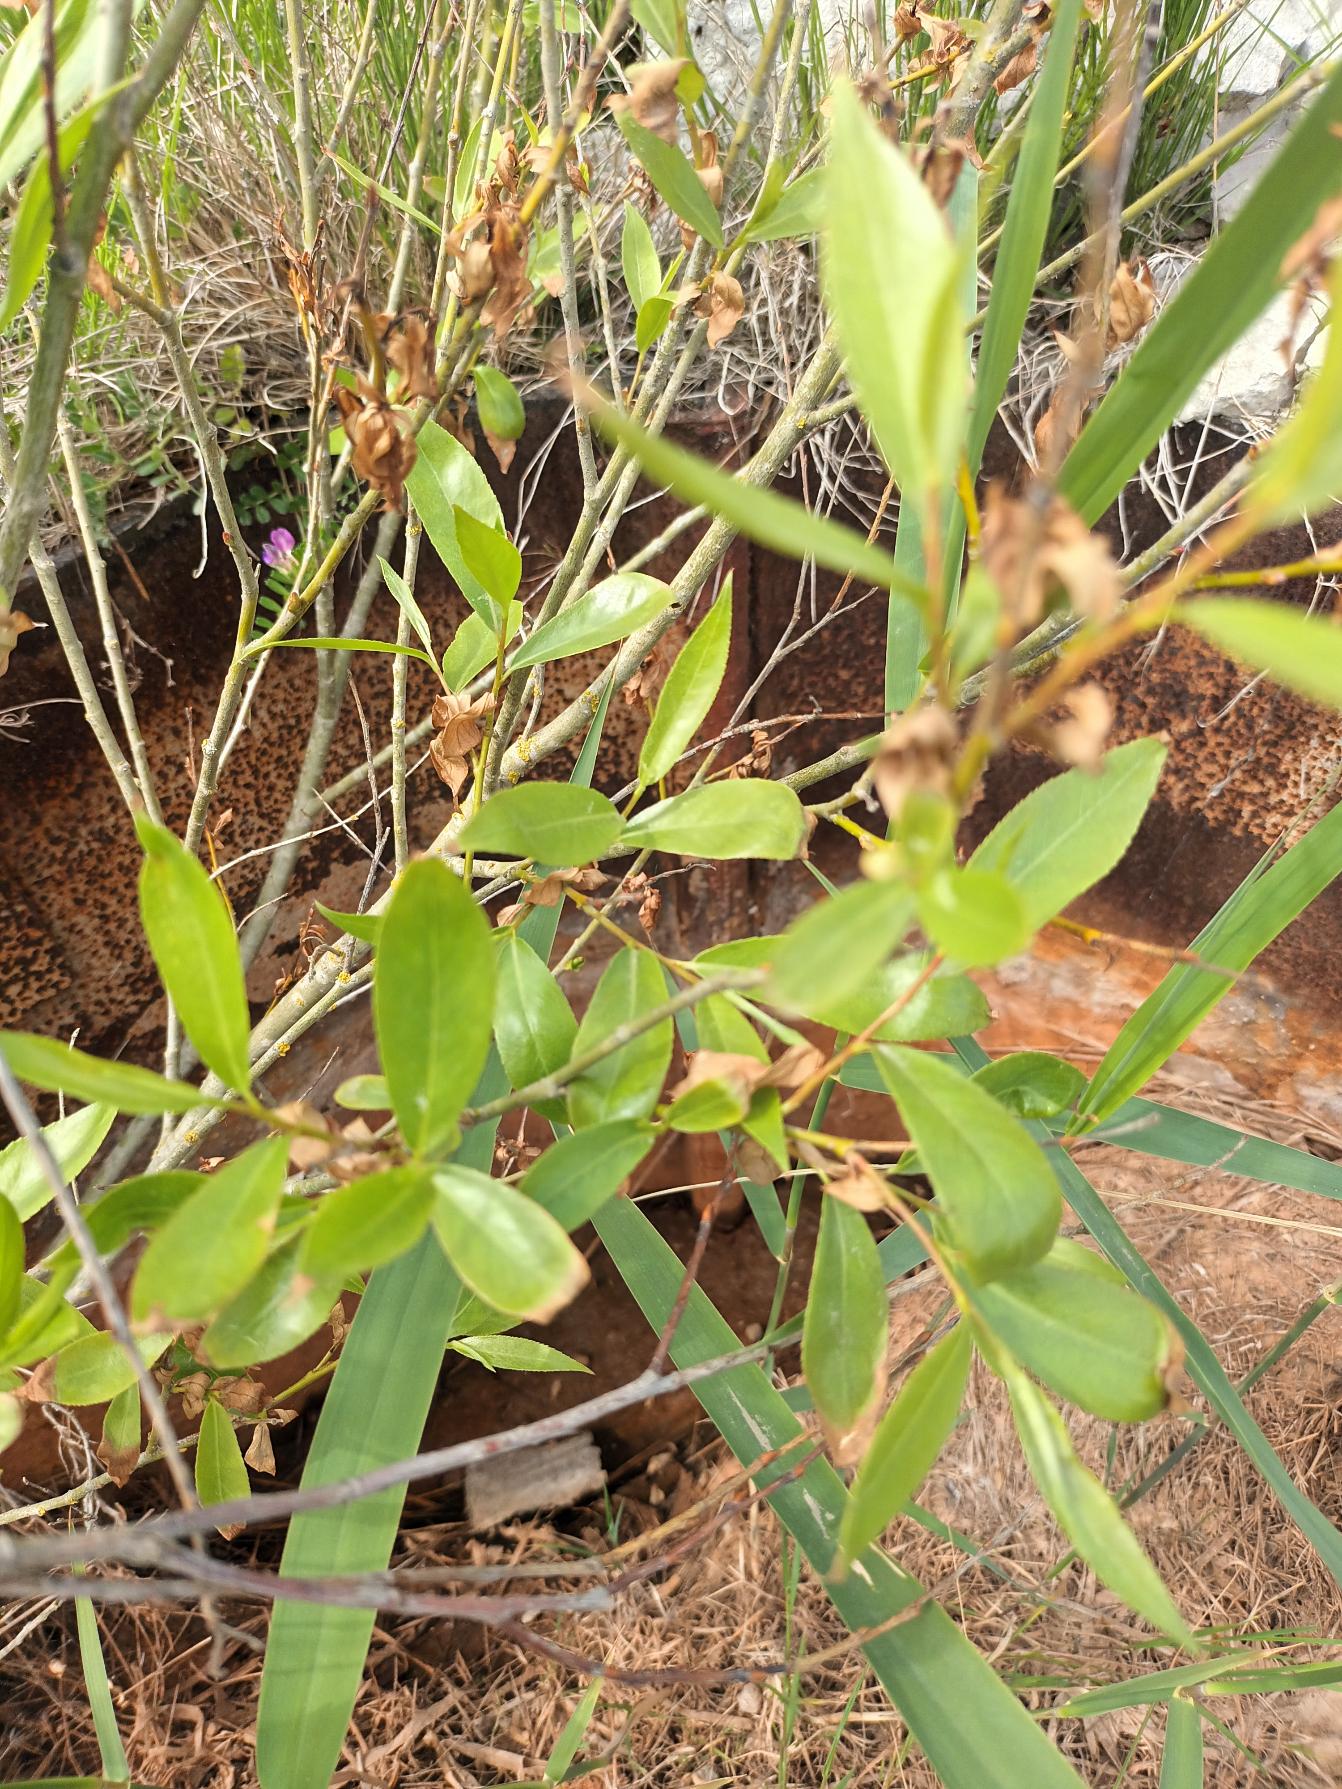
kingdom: Plantae
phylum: Tracheophyta
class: Magnoliopsida
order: Malpighiales
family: Salicaceae
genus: Salix
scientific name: Salix daphnoides
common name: Pommersk pil
